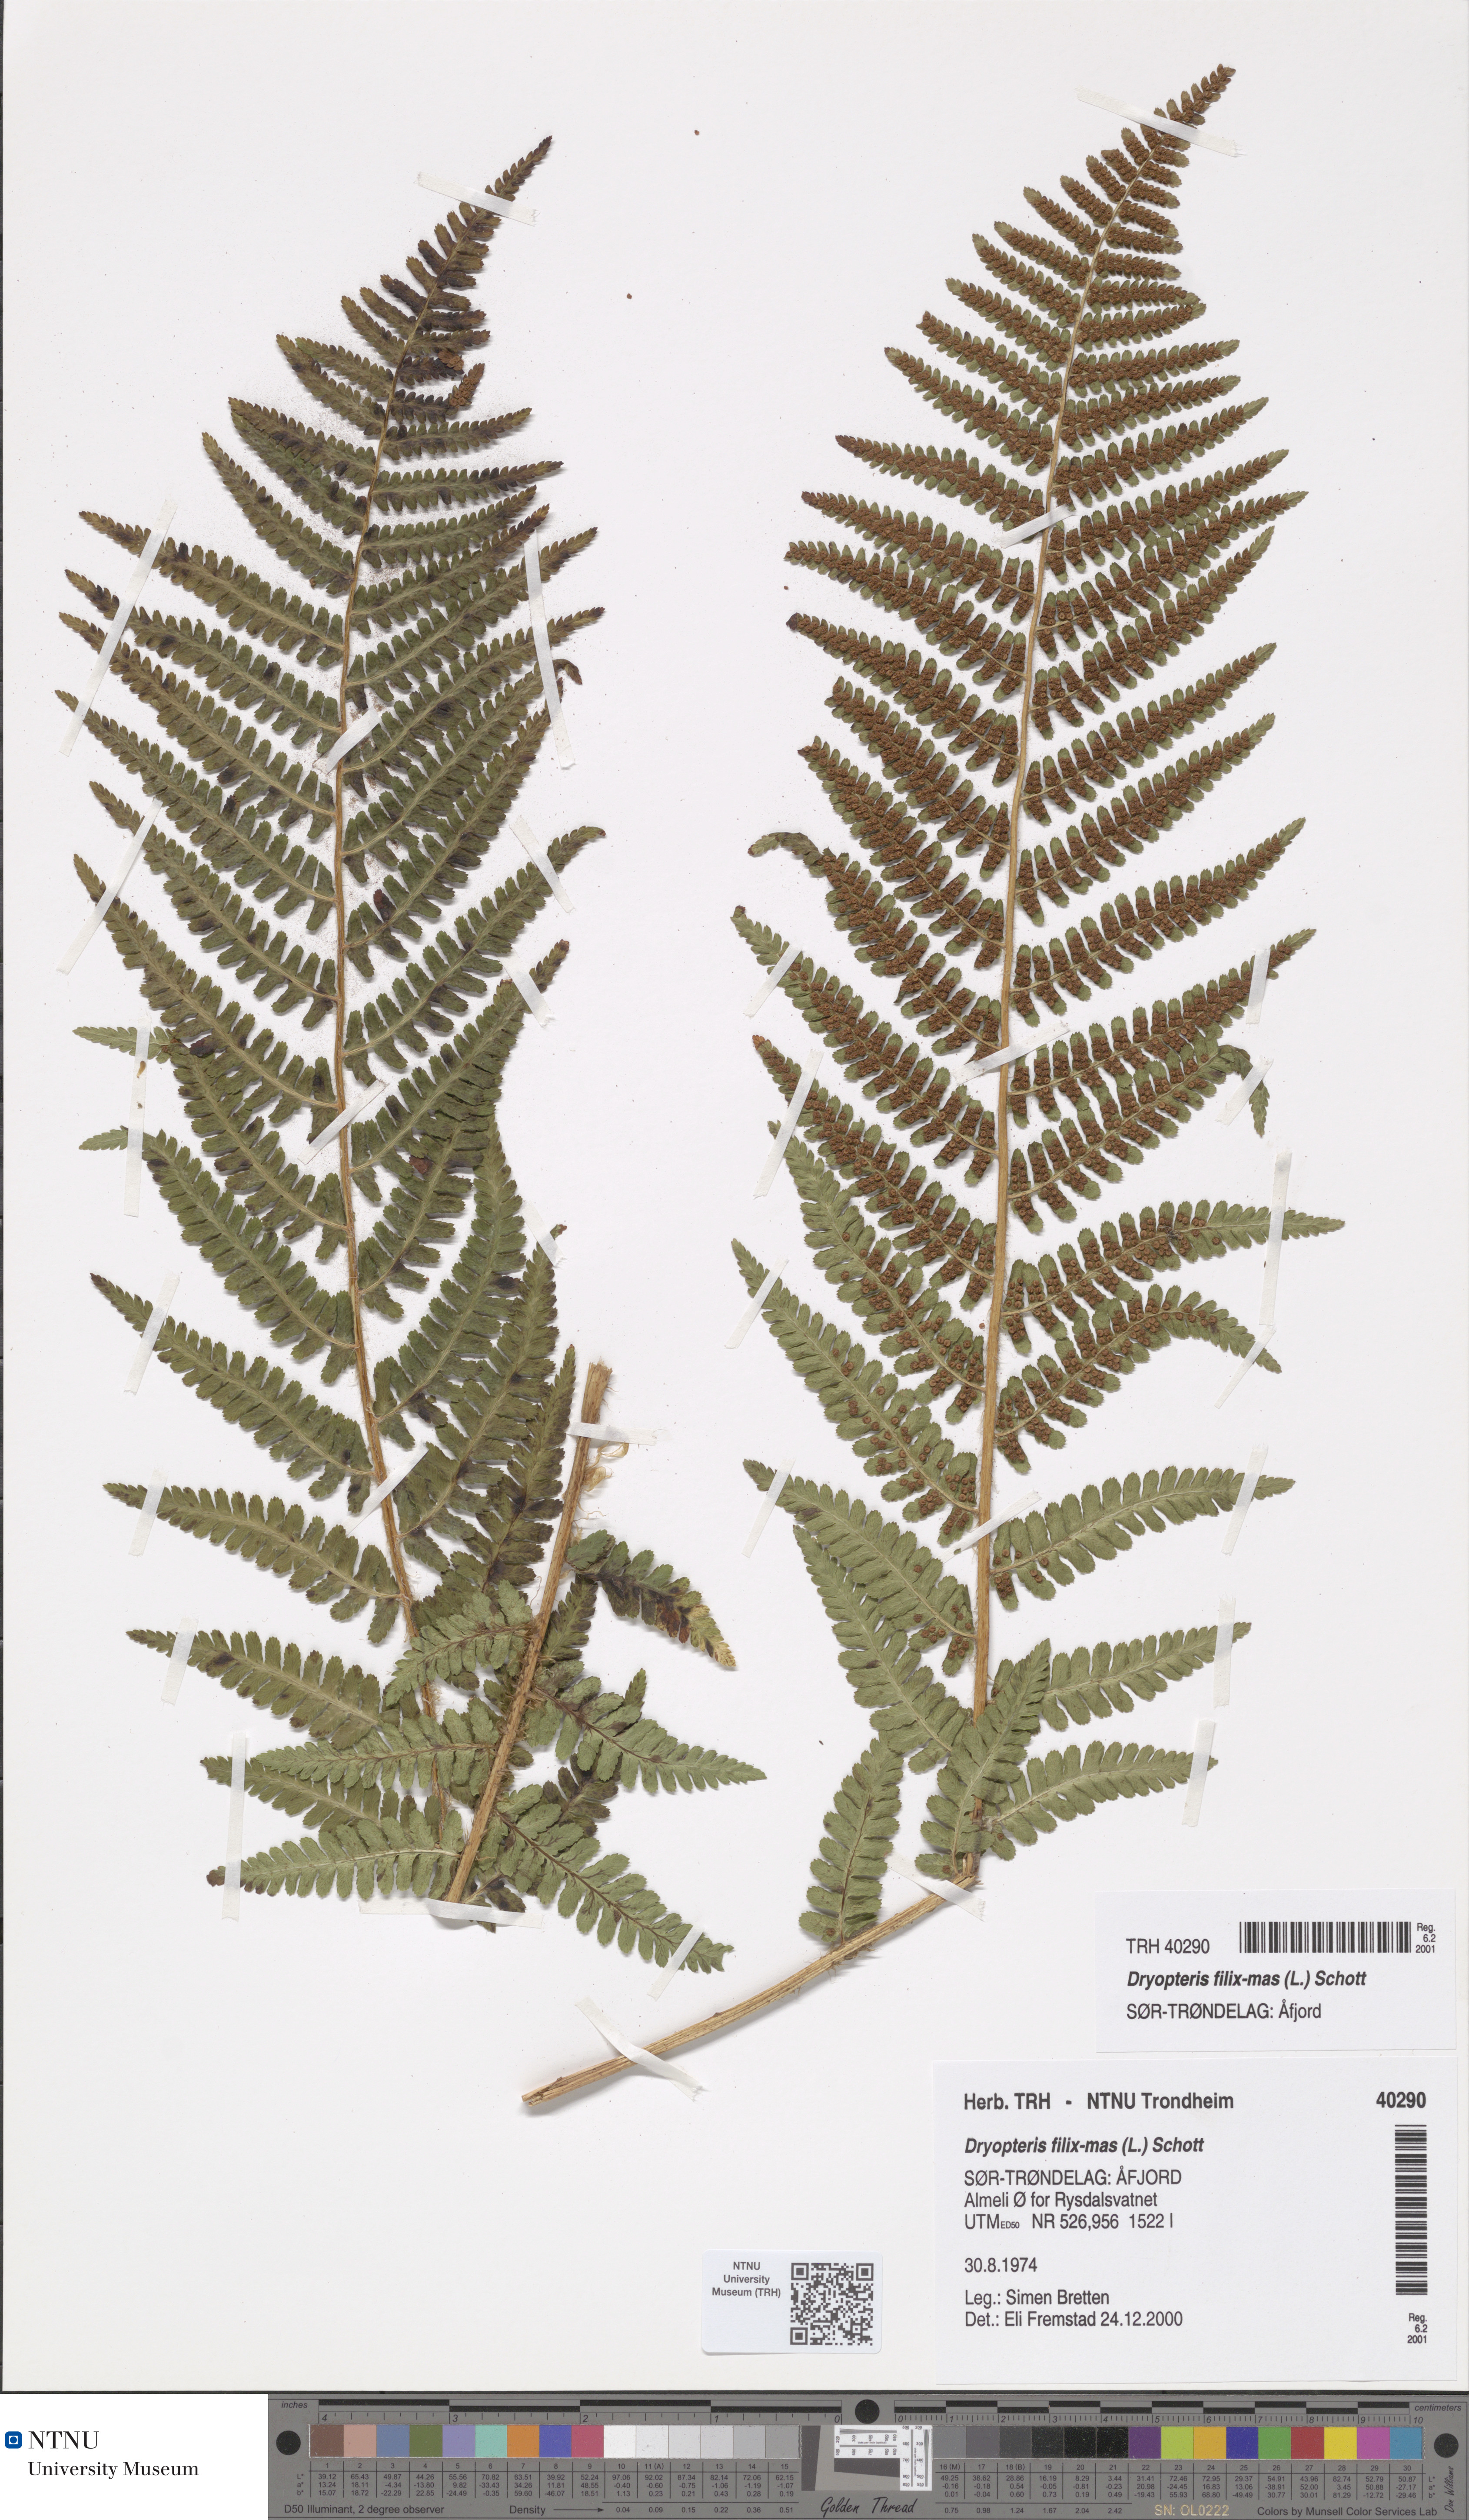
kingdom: Plantae
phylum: Tracheophyta
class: Polypodiopsida
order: Polypodiales
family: Dryopteridaceae
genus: Dryopteris
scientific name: Dryopteris filix-mas
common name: Male fern
